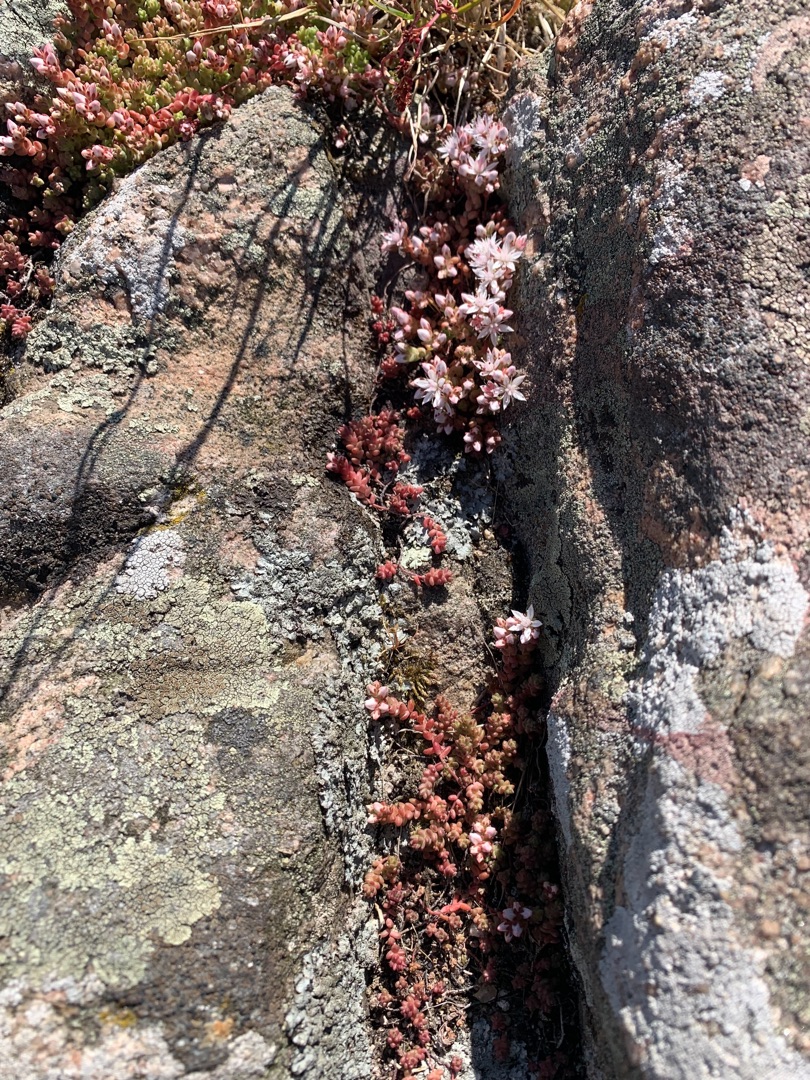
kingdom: Plantae
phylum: Tracheophyta
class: Magnoliopsida
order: Saxifragales
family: Crassulaceae
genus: Sedum
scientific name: Sedum anglicum
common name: Engelsk stenurt
